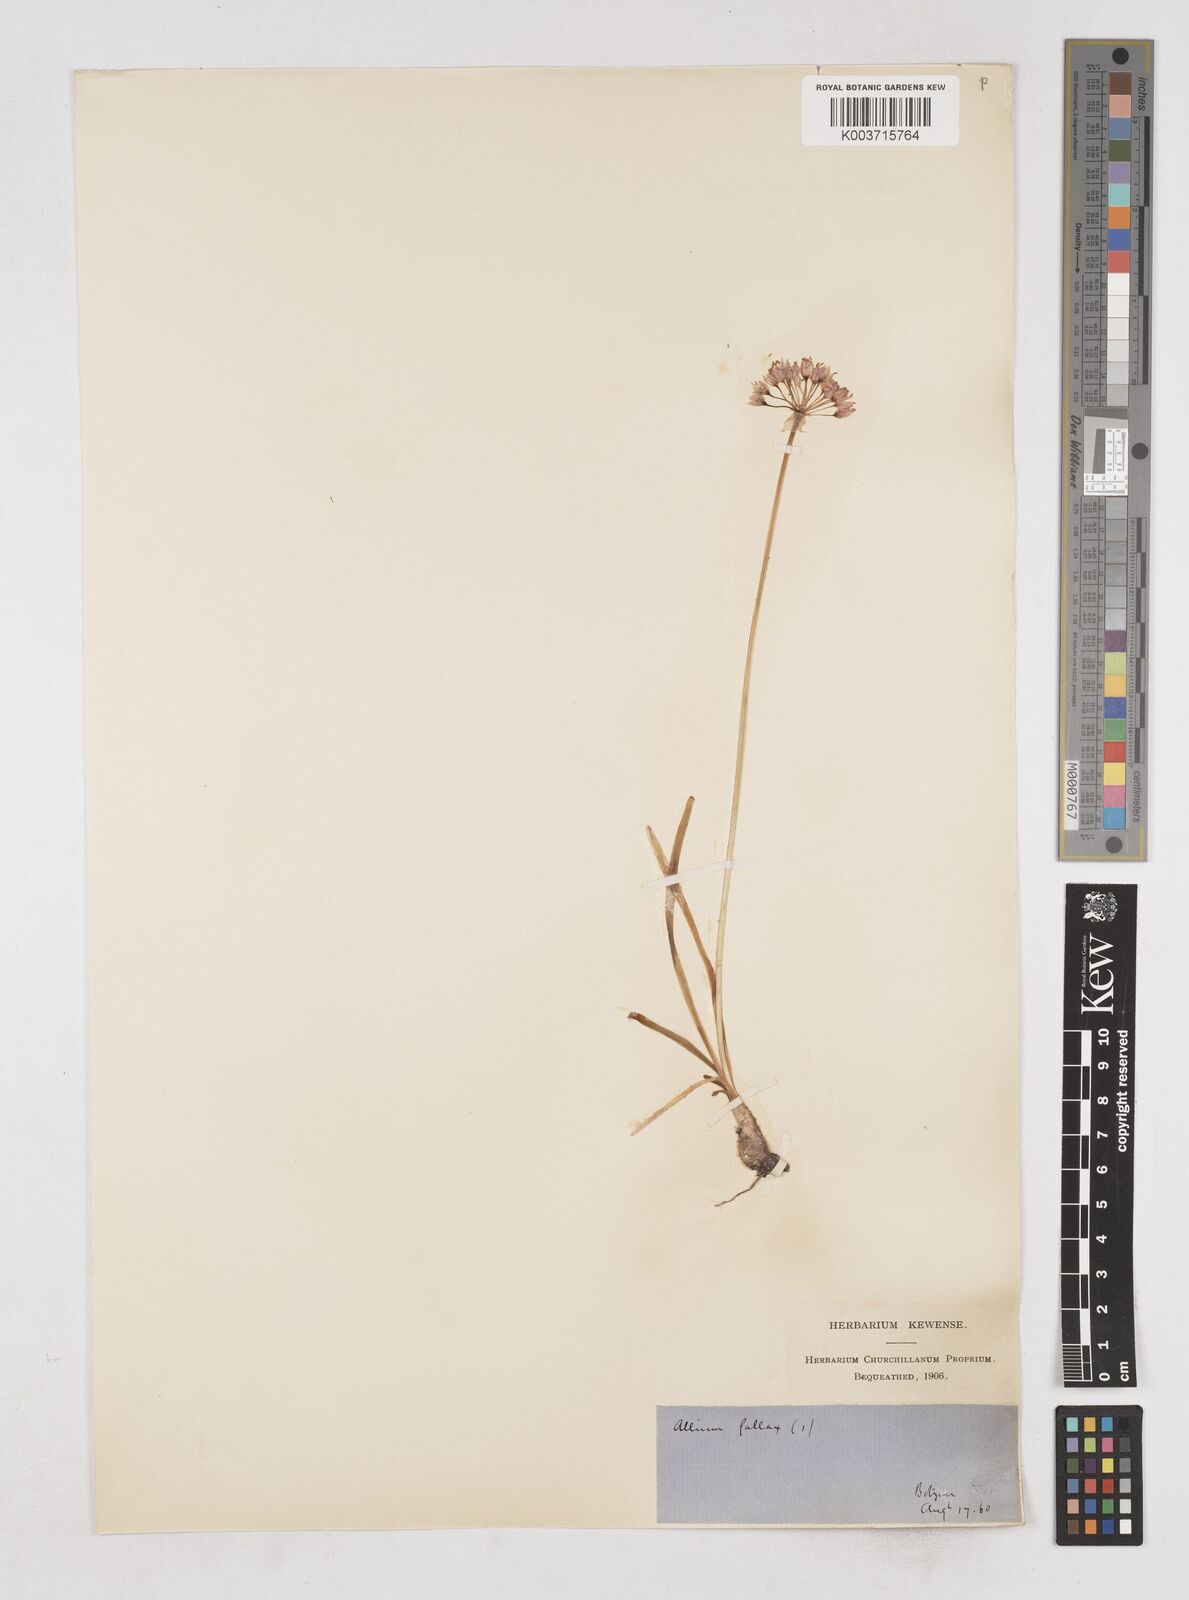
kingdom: Plantae
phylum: Tracheophyta
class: Liliopsida
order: Asparagales
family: Amaryllidaceae
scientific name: Amaryllidaceae
